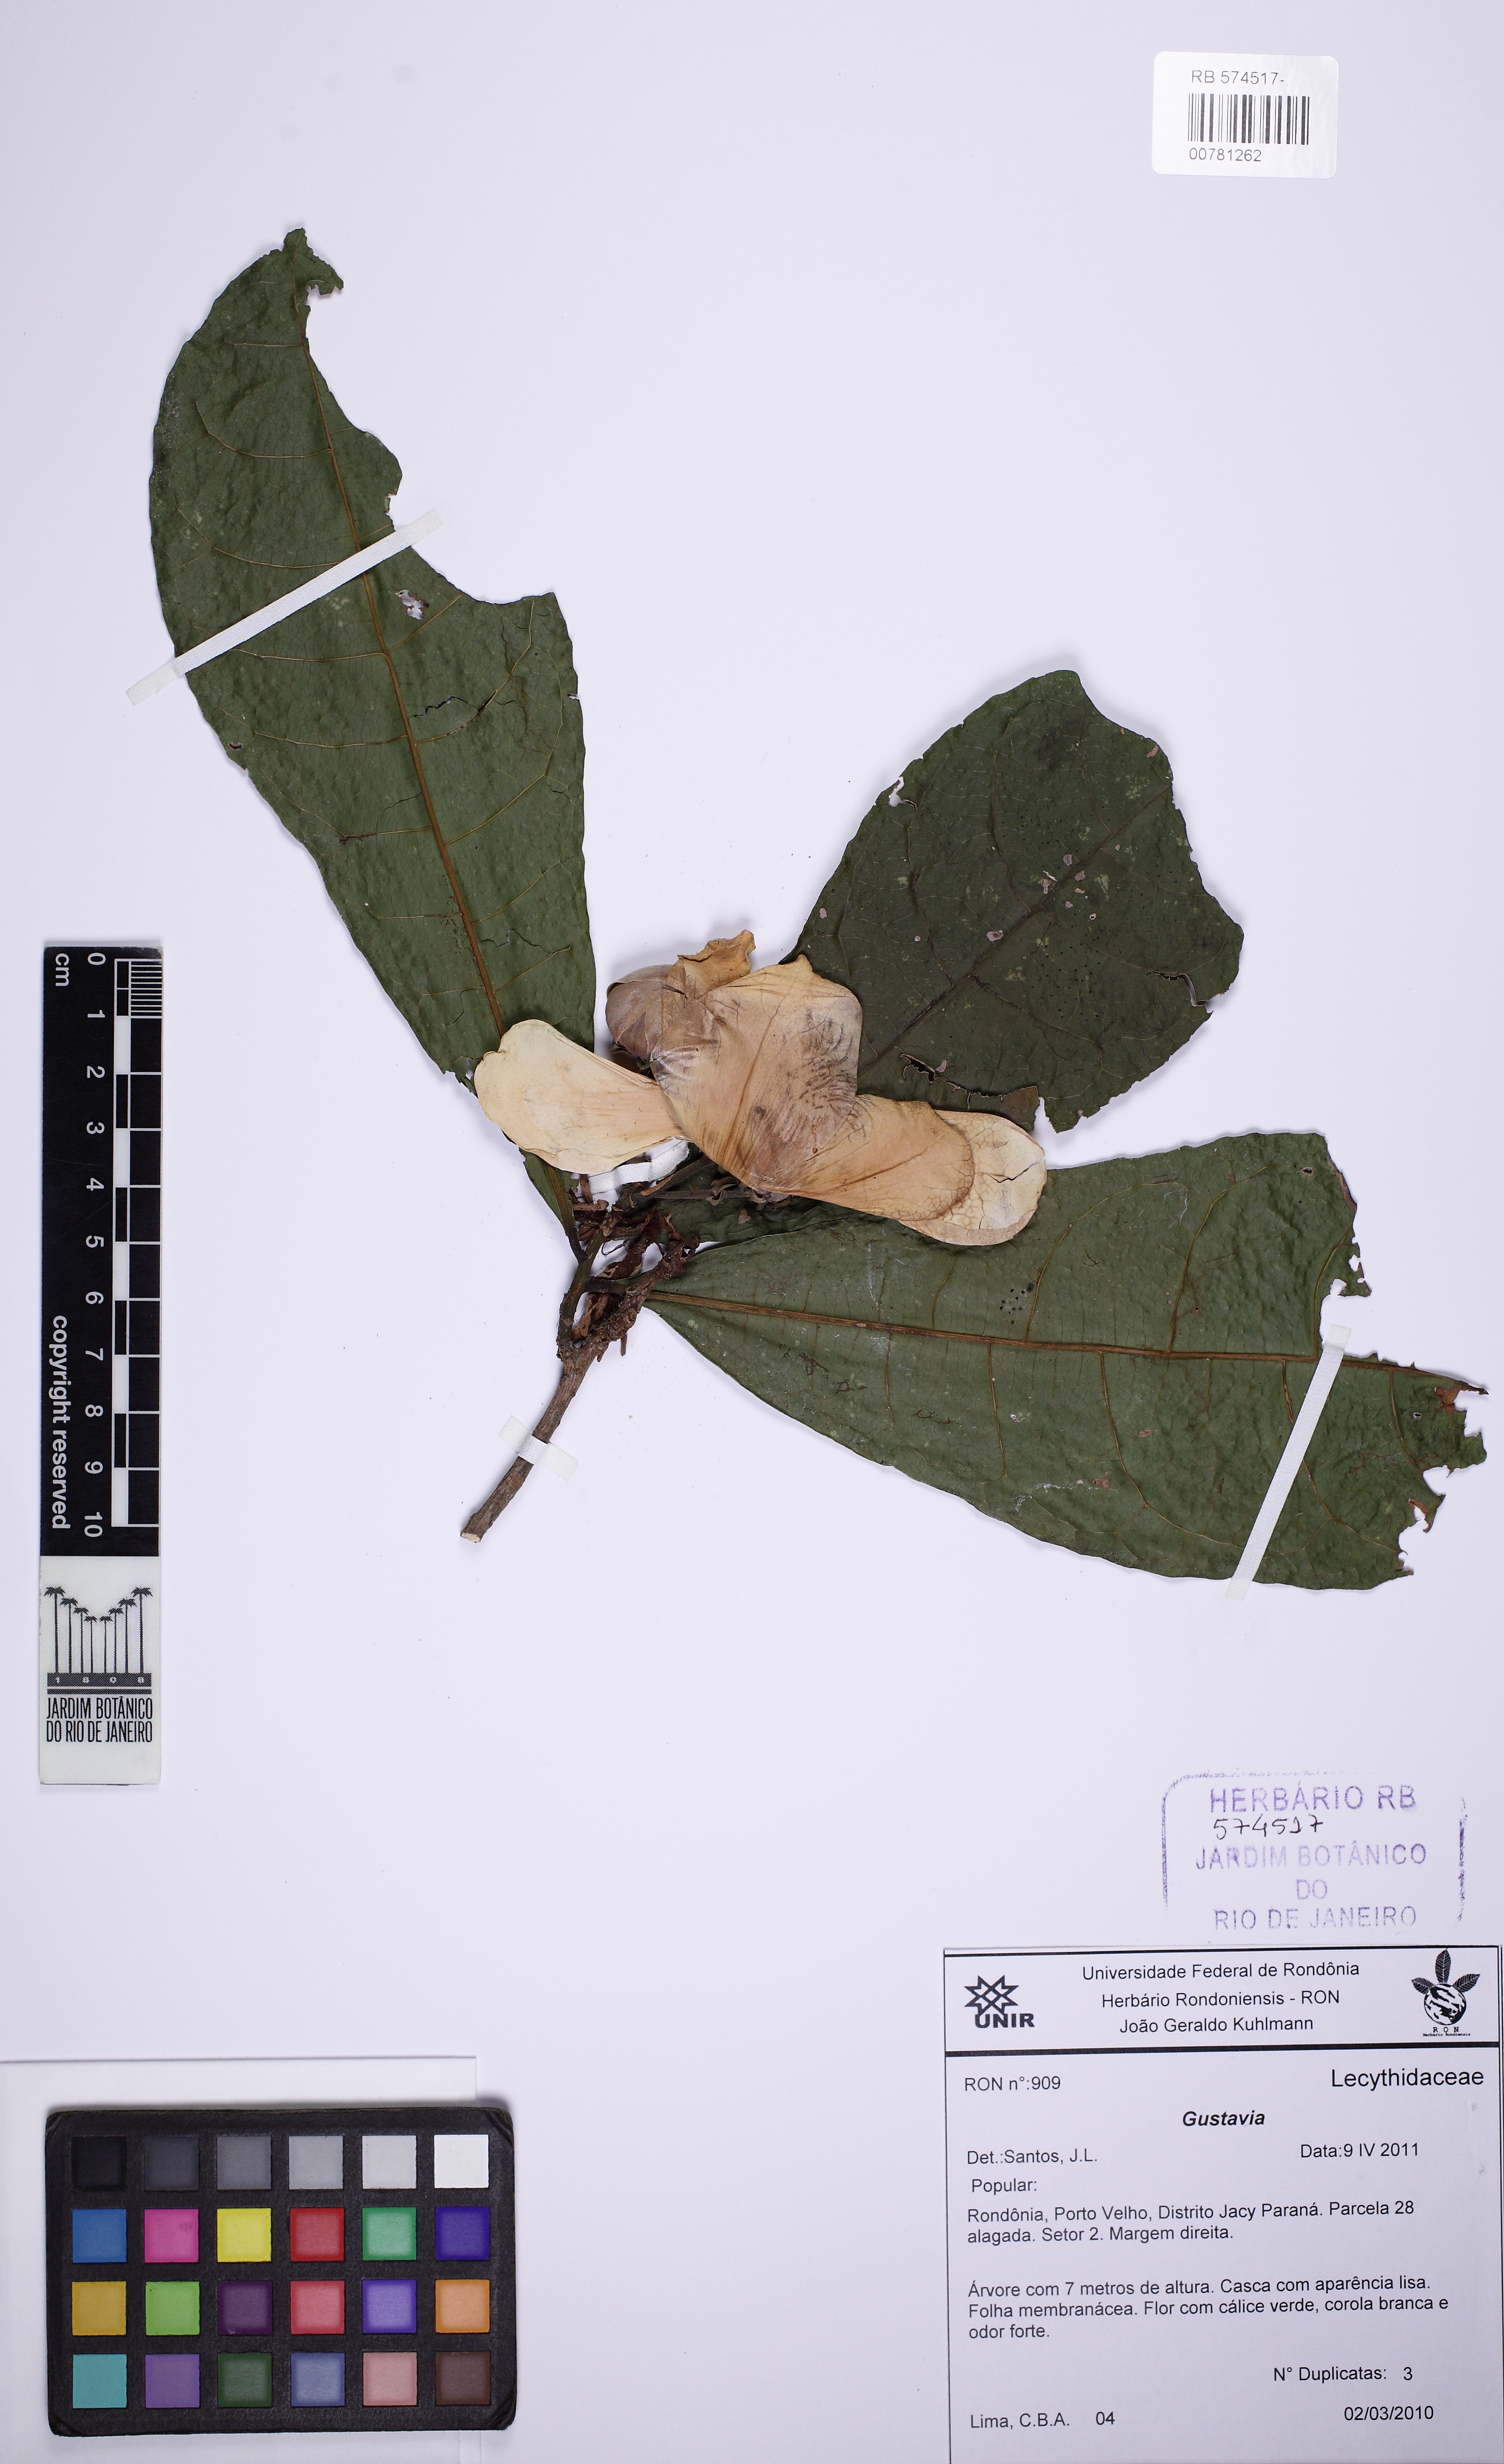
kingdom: Plantae
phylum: Tracheophyta
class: Magnoliopsida
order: Ericales
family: Lecythidaceae
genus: Gustavia
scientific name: Gustavia
